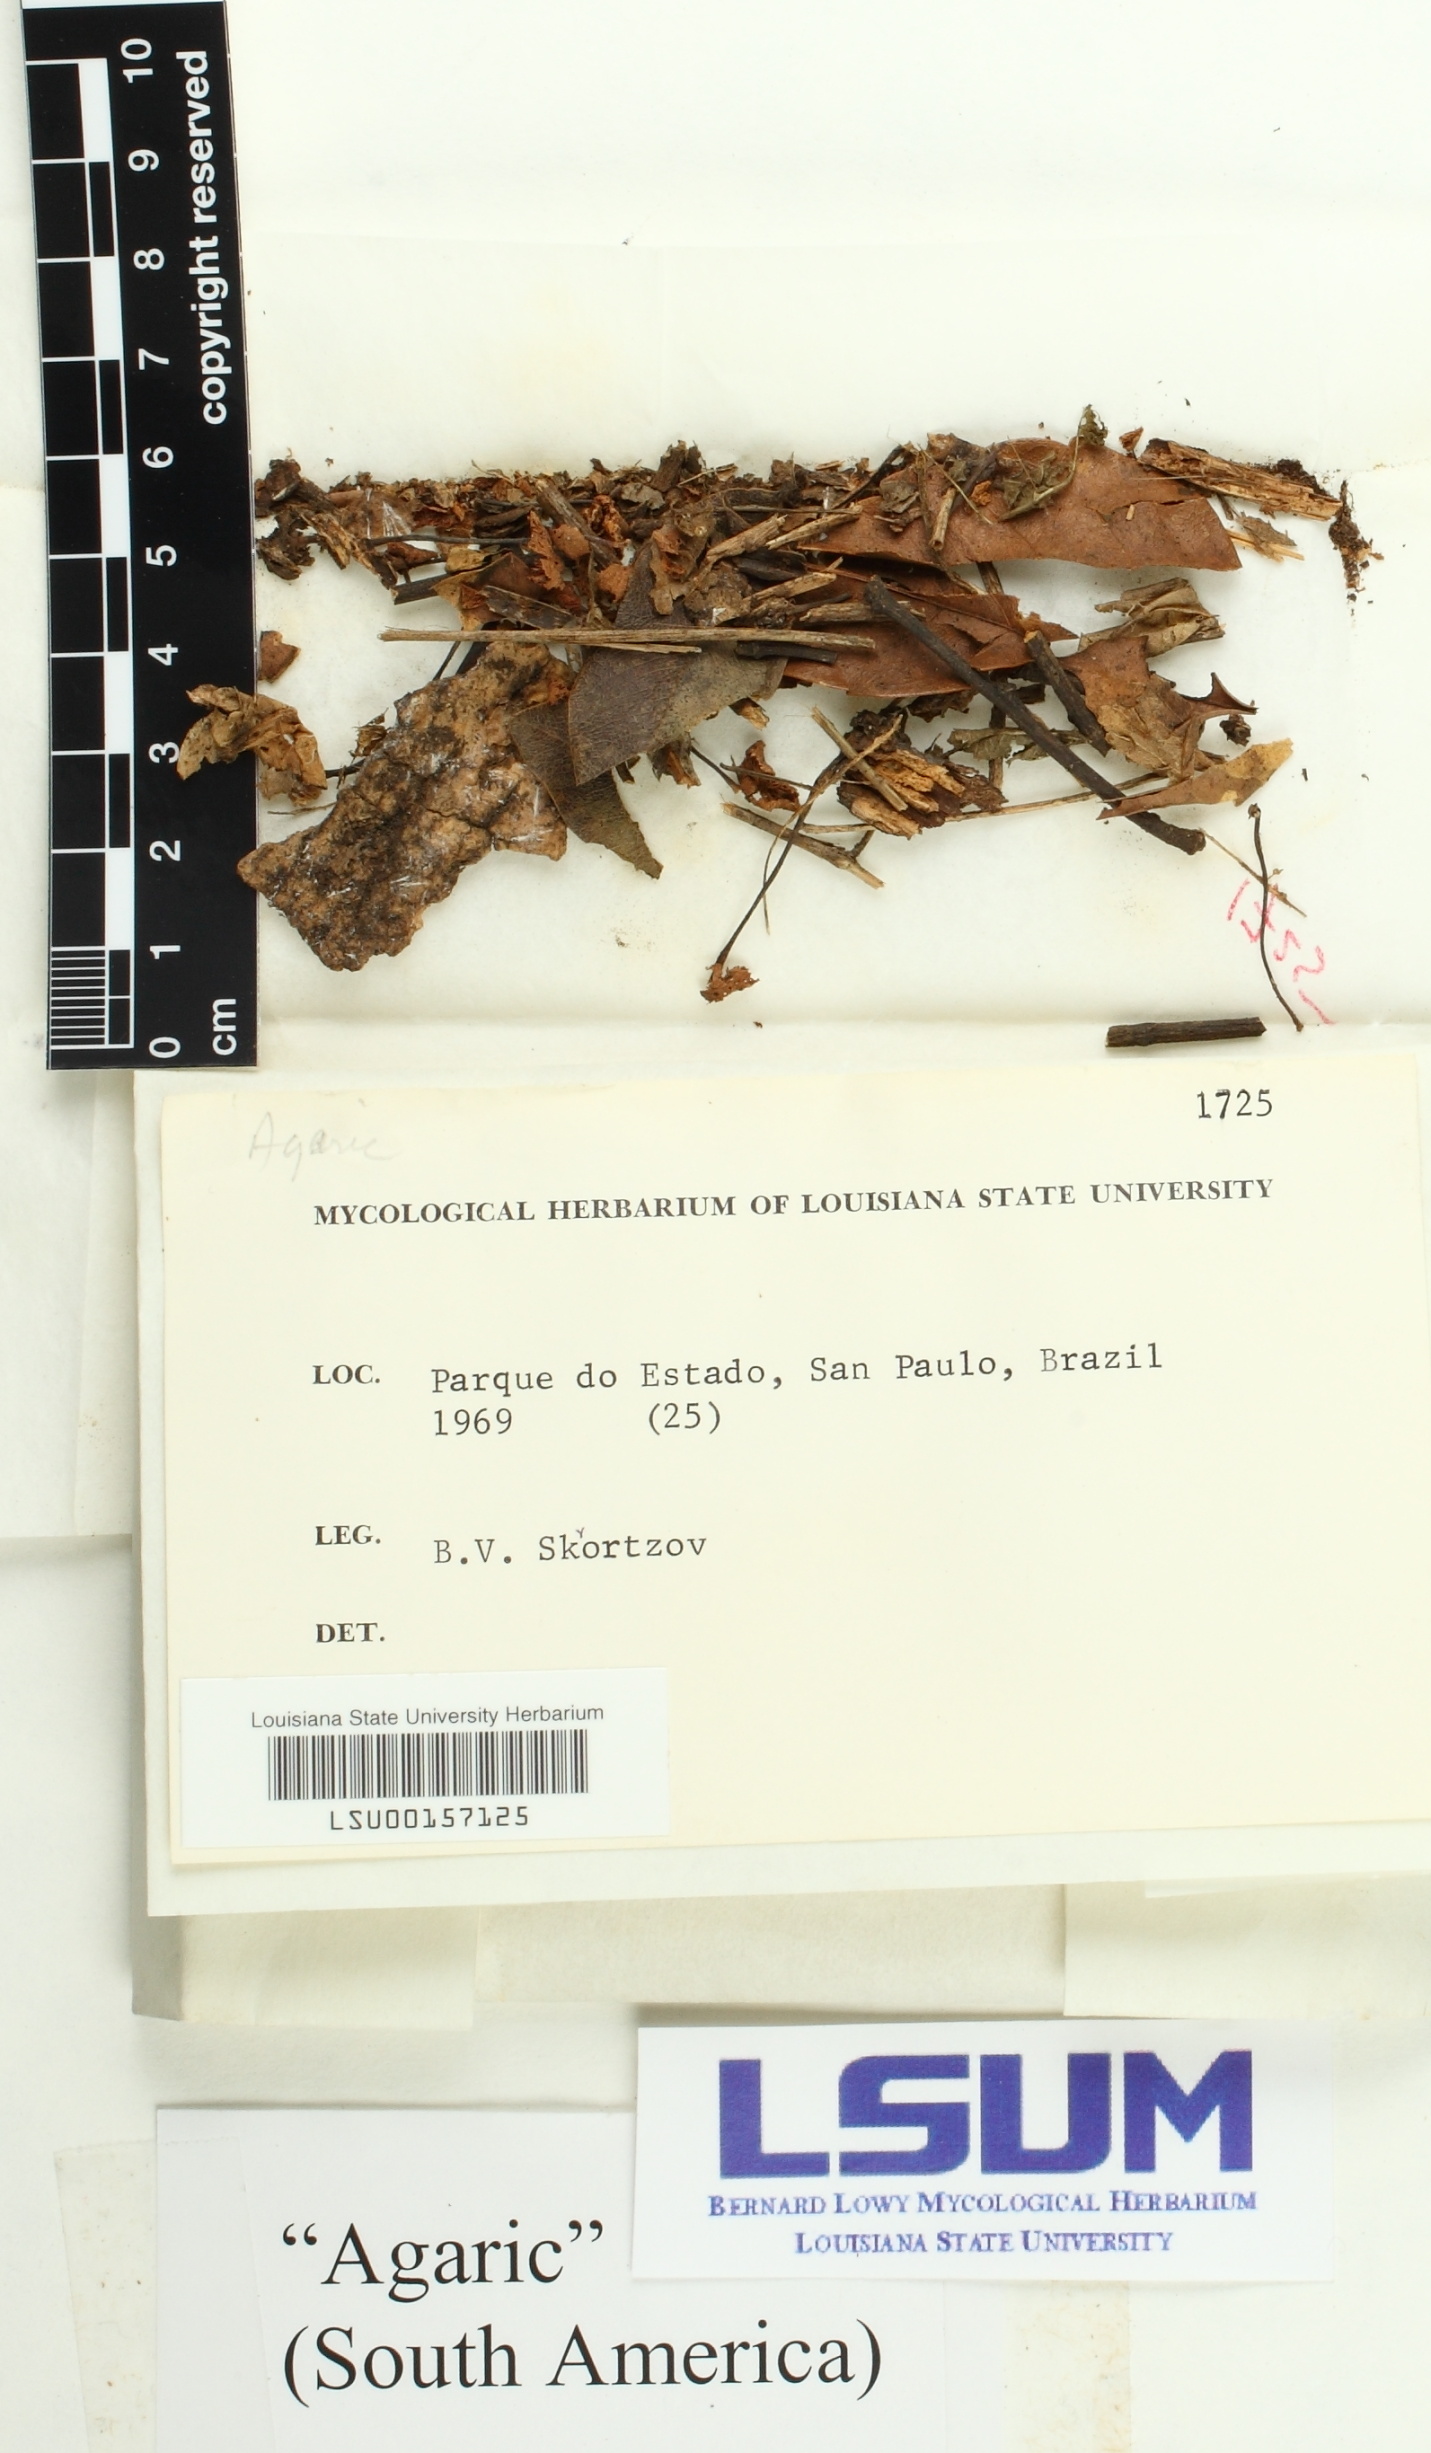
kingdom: Fungi
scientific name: Fungi
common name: Fungi
